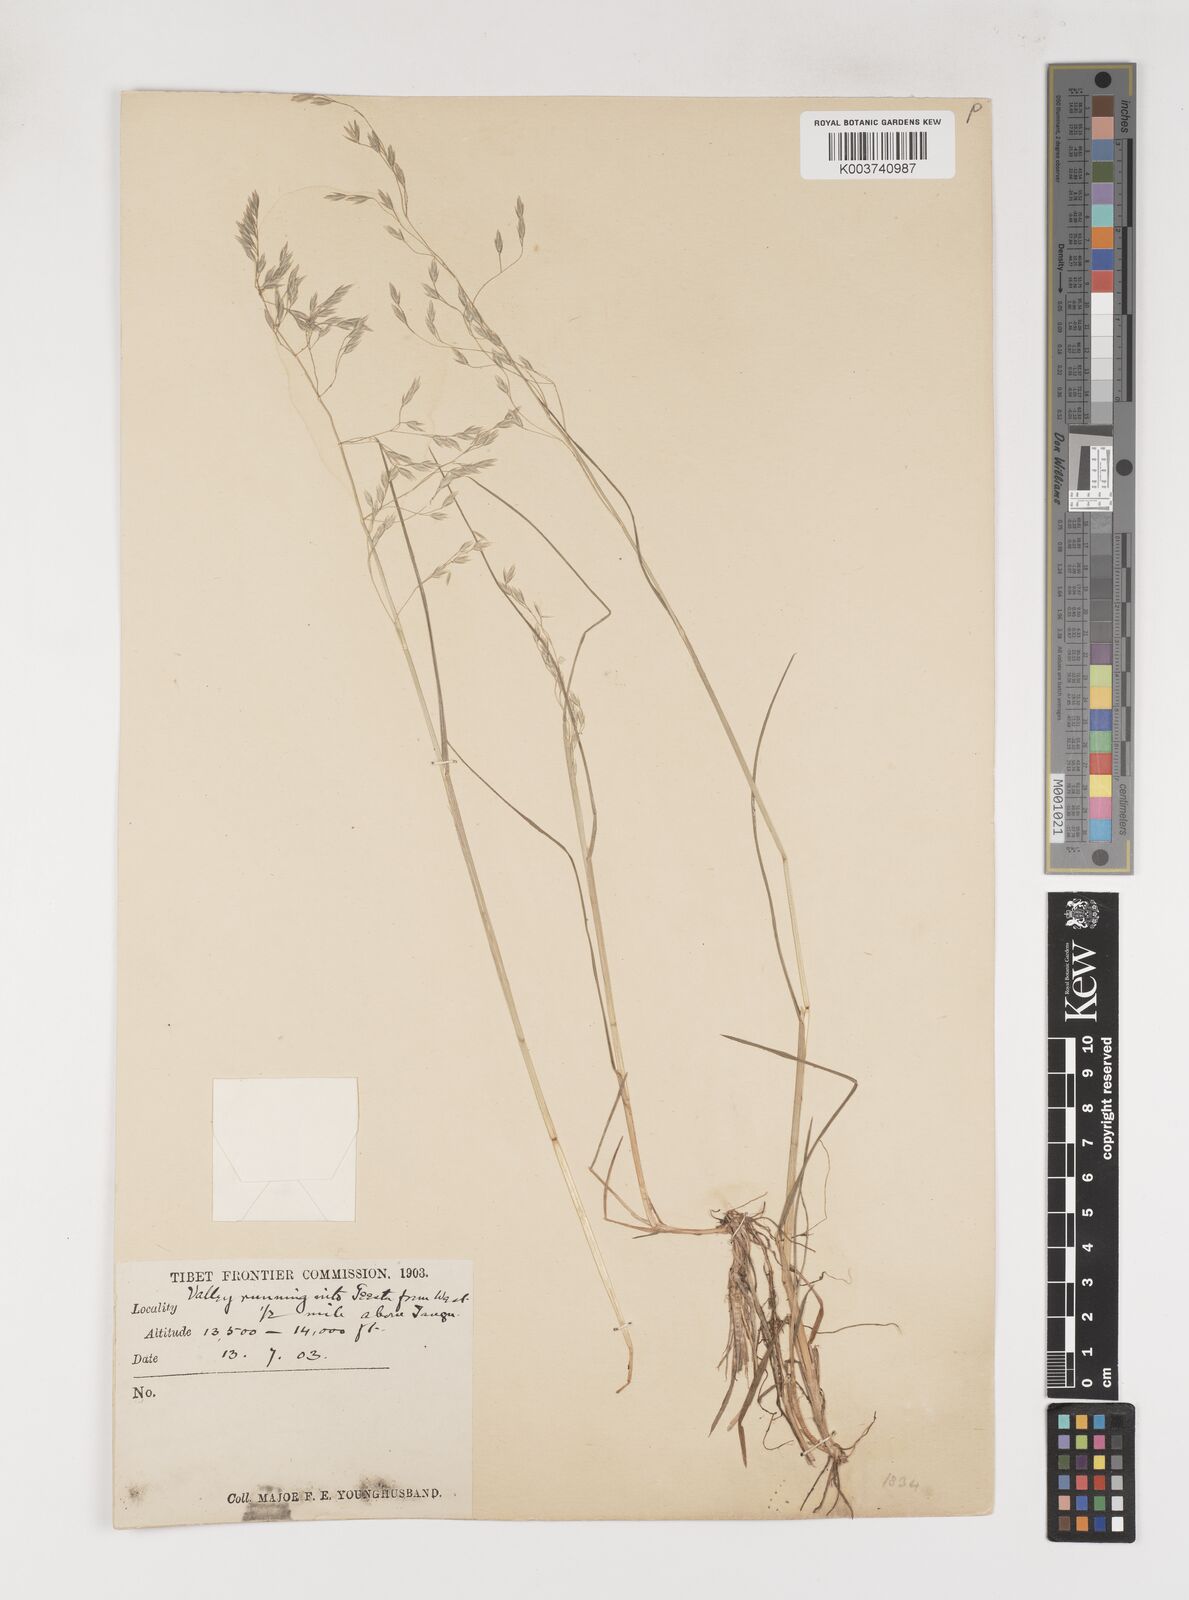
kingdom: Plantae
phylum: Tracheophyta
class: Liliopsida
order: Poales
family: Poaceae
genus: Poa
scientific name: Poa nitidespiculata
